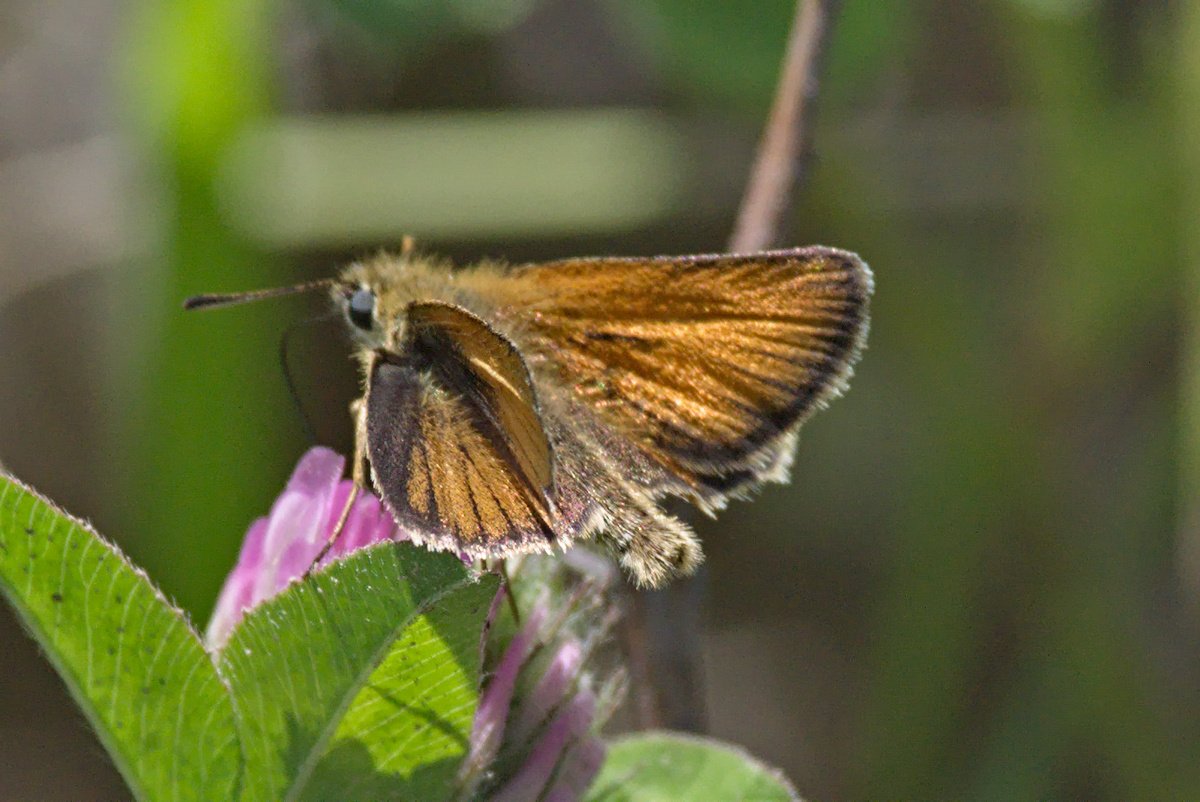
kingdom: Animalia
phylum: Arthropoda
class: Insecta
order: Lepidoptera
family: Hesperiidae
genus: Thymelicus
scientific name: Thymelicus lineola
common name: European Skipper
